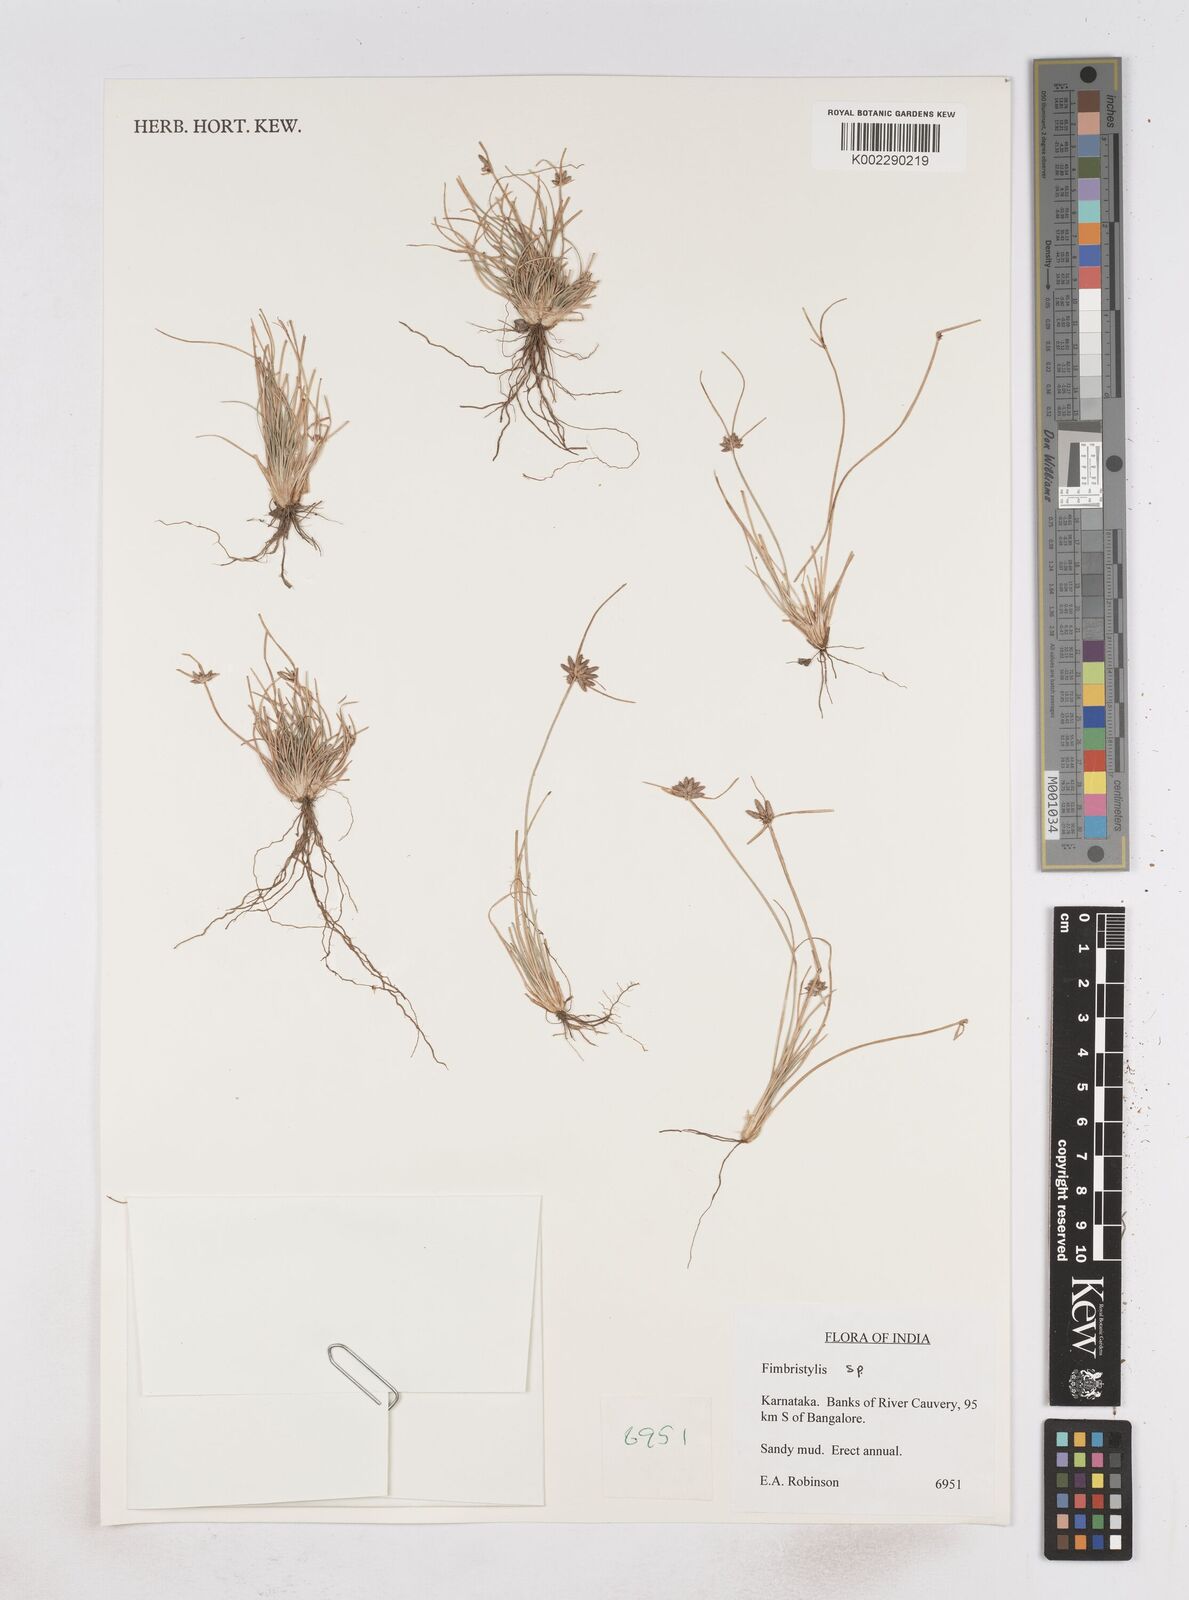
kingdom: Plantae
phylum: Tracheophyta
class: Liliopsida
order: Poales
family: Cyperaceae
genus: Fimbristylis
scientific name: Fimbristylis
